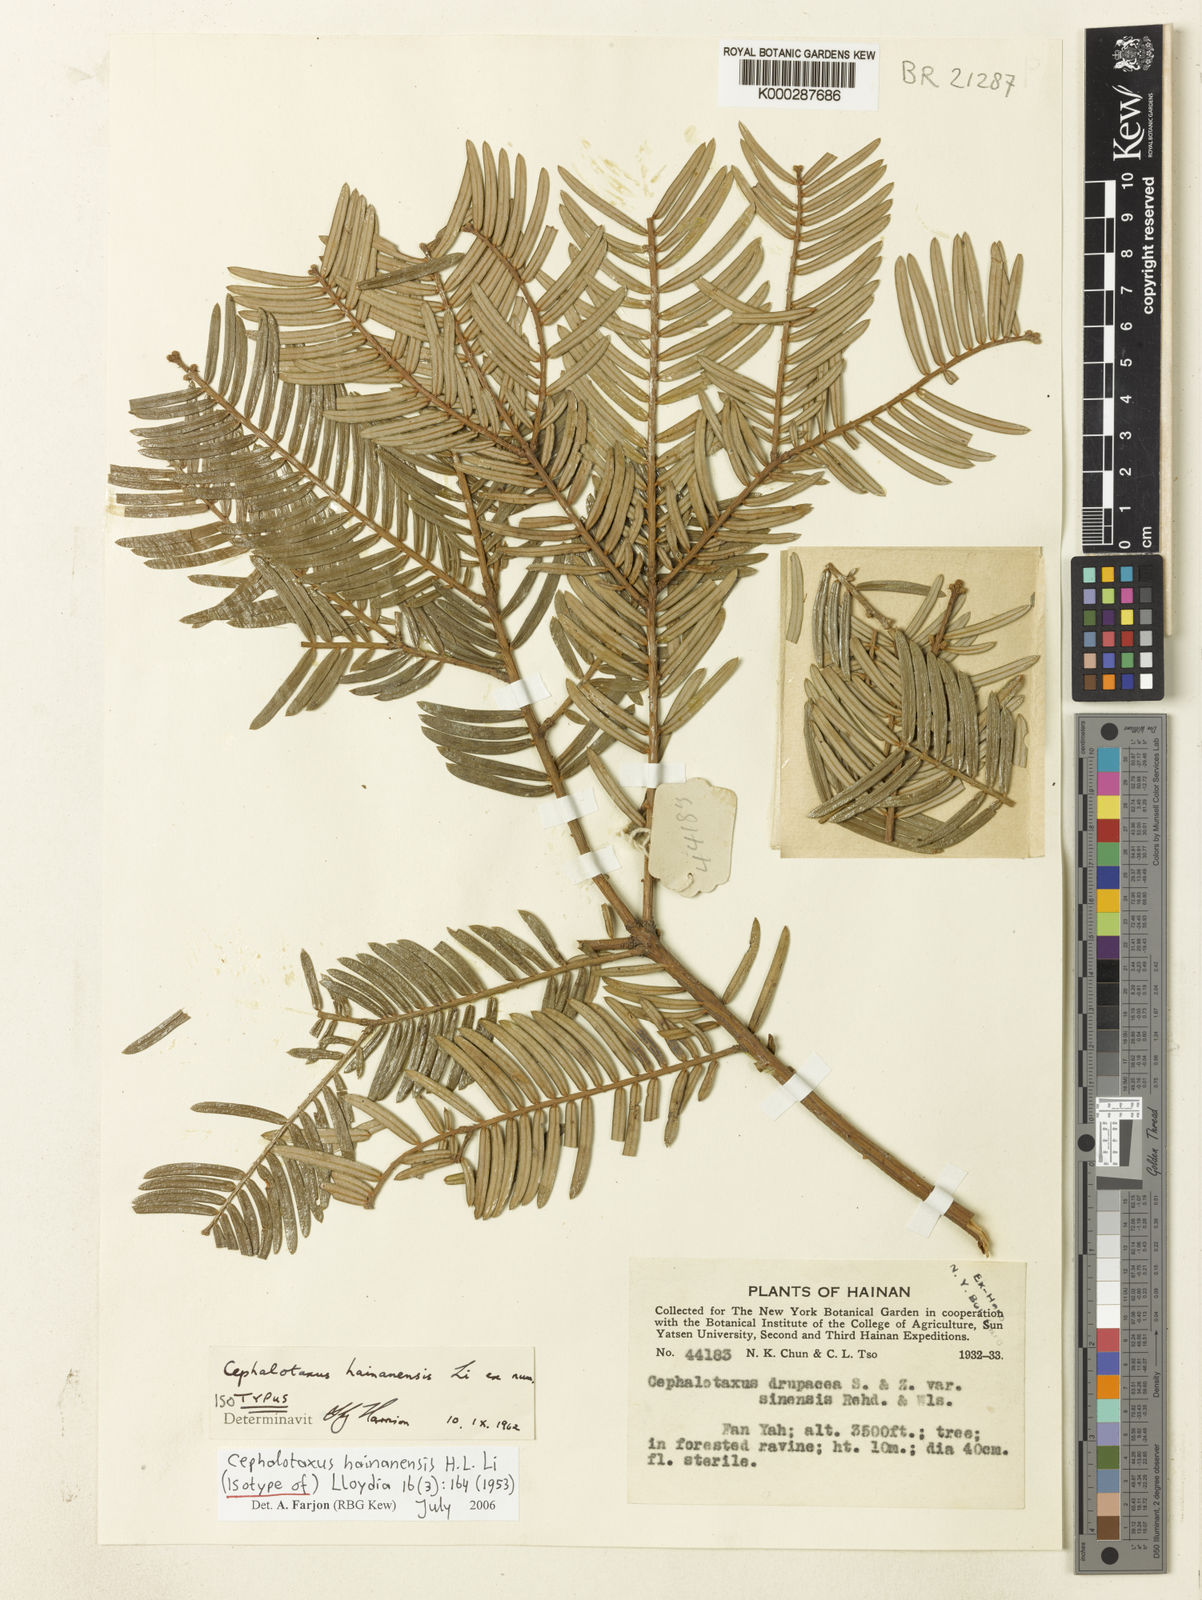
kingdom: Plantae
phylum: Tracheophyta
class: Pinopsida
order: Pinales
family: Cephalotaxaceae
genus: Cephalotaxus
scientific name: Cephalotaxus hainanensis
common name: Hainan plum yew
